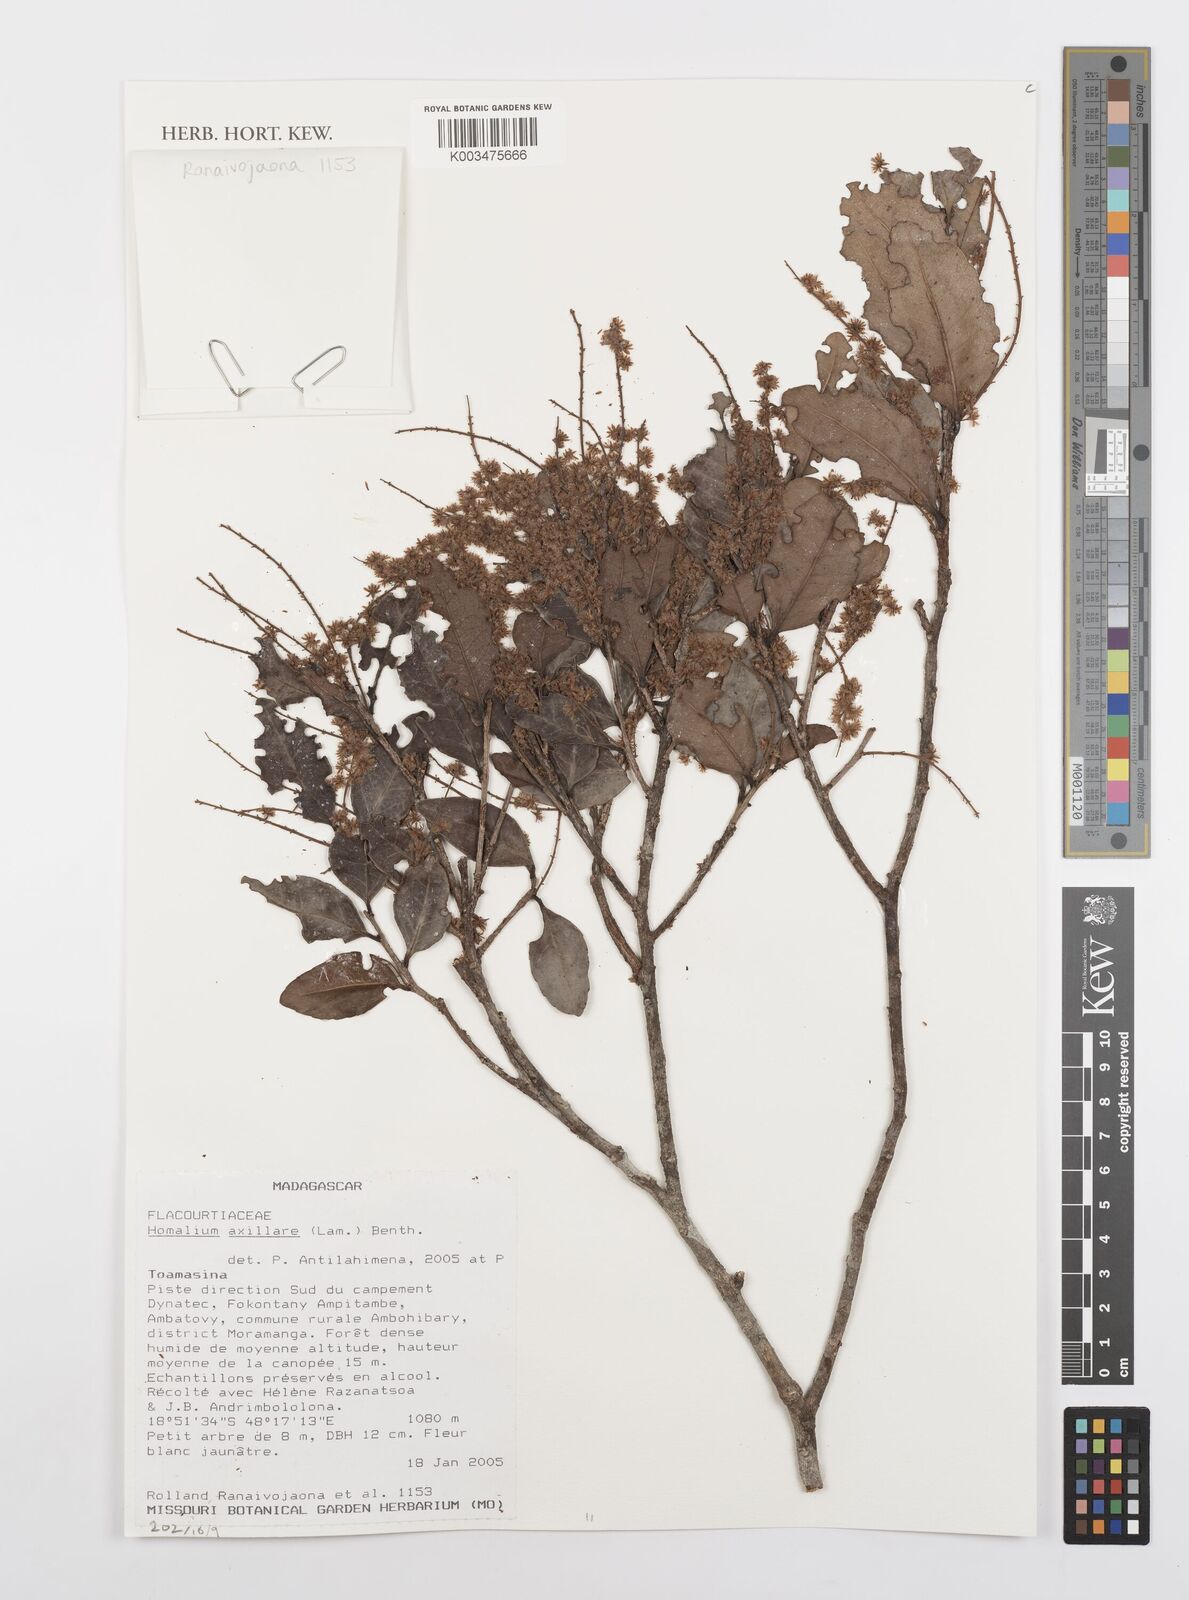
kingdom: Plantae
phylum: Tracheophyta
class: Magnoliopsida
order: Malpighiales
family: Salicaceae
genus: Homalium
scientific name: Homalium axillare
